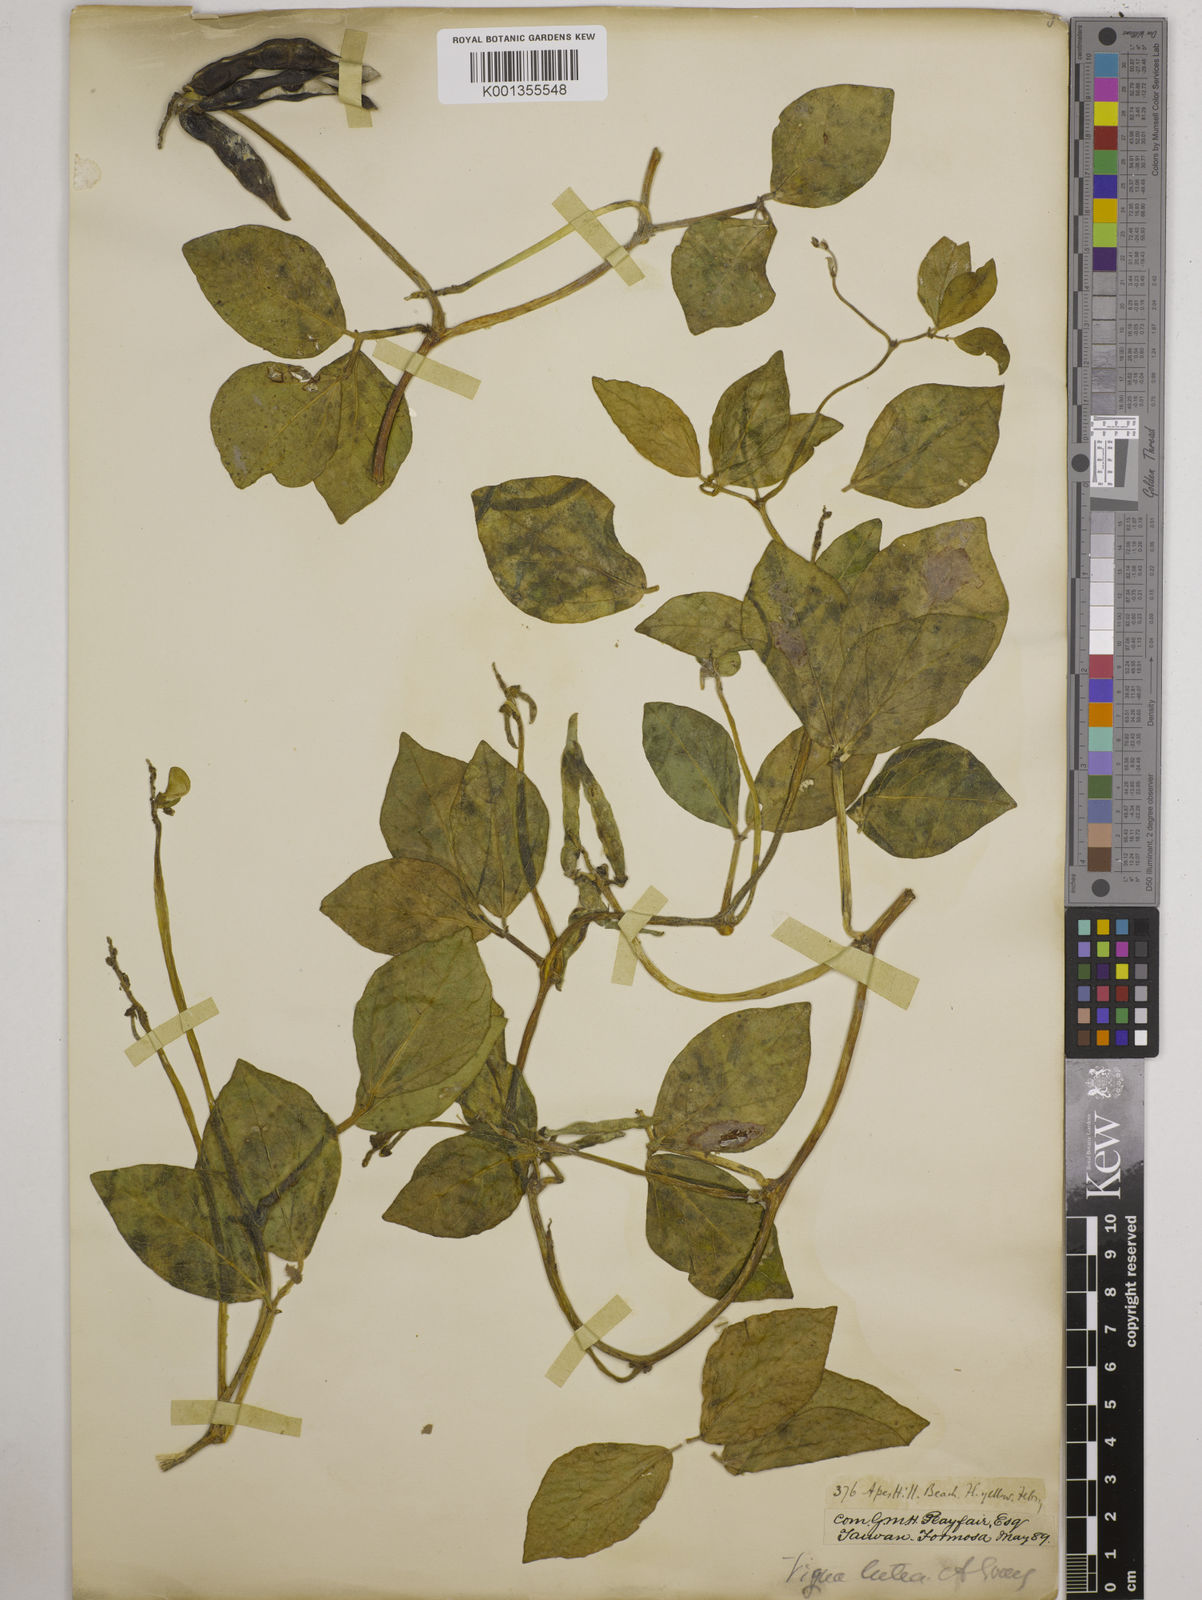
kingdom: Plantae
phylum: Tracheophyta
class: Magnoliopsida
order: Fabales
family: Fabaceae
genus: Vigna
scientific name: Vigna marina
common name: Dune-bean
